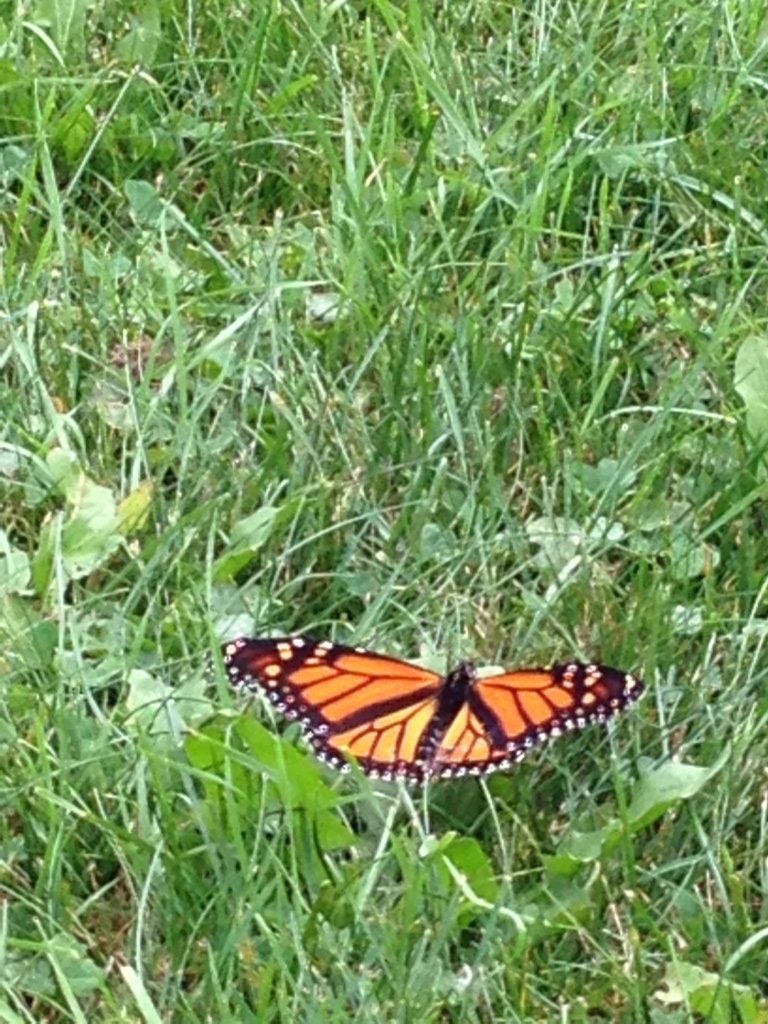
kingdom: Animalia
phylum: Arthropoda
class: Insecta
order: Lepidoptera
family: Nymphalidae
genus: Danaus
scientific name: Danaus plexippus
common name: Monarch
